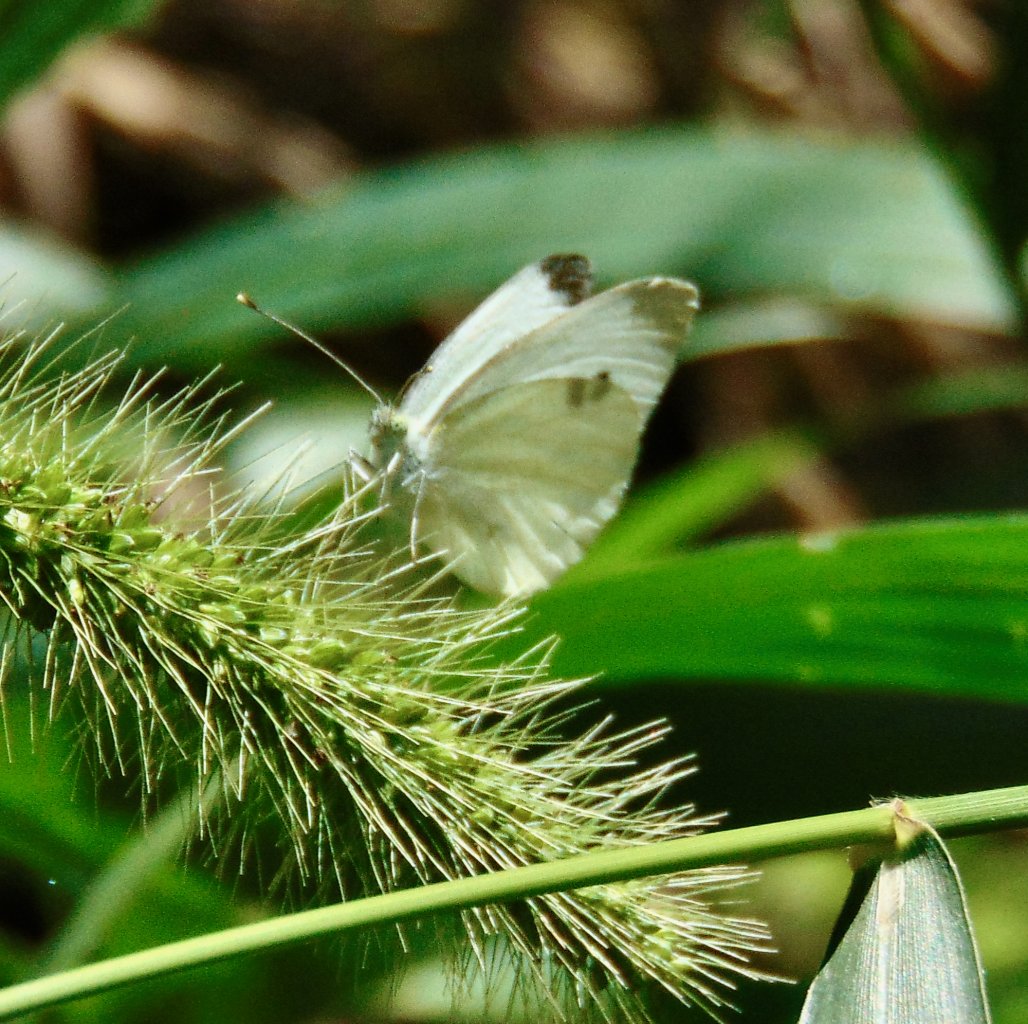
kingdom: Animalia
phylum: Arthropoda
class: Insecta
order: Lepidoptera
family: Pieridae
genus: Pieris
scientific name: Pieris rapae
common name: Cabbage White
